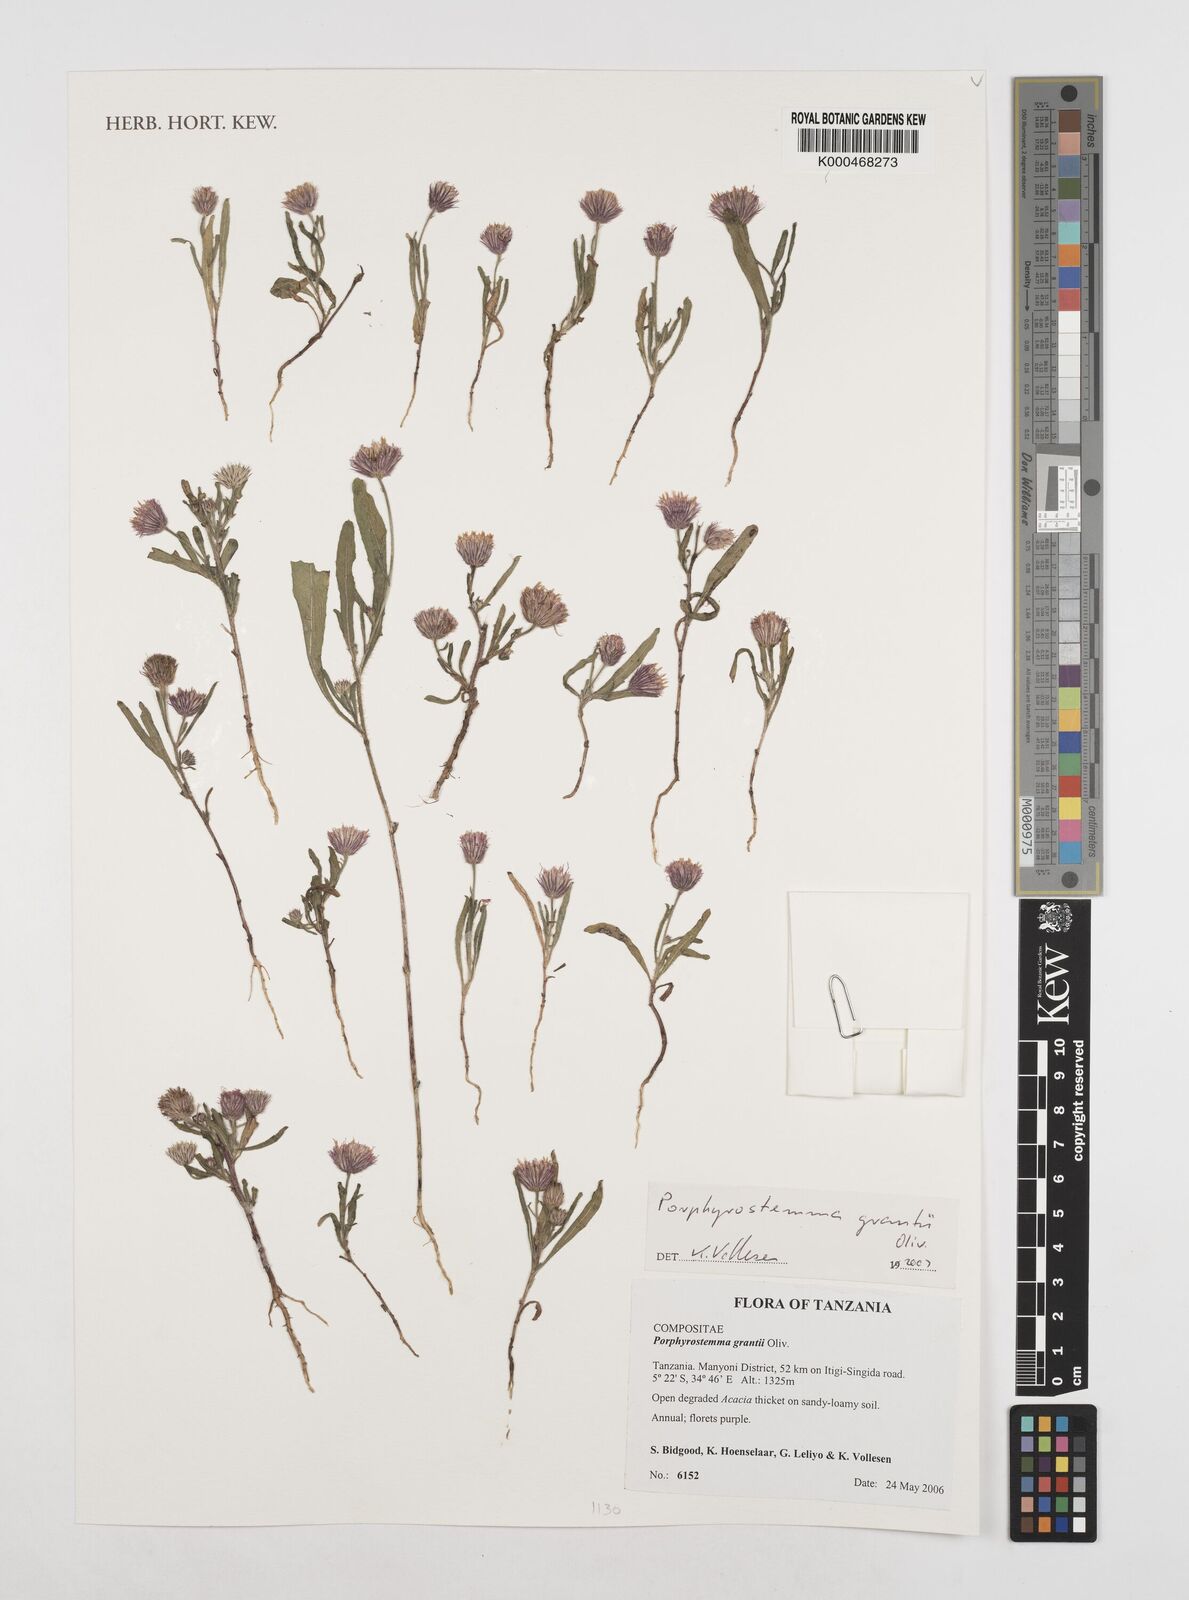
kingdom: Plantae
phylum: Tracheophyta
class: Magnoliopsida
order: Asterales
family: Asteraceae
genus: Porphyrostemma
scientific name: Porphyrostemma grantii
